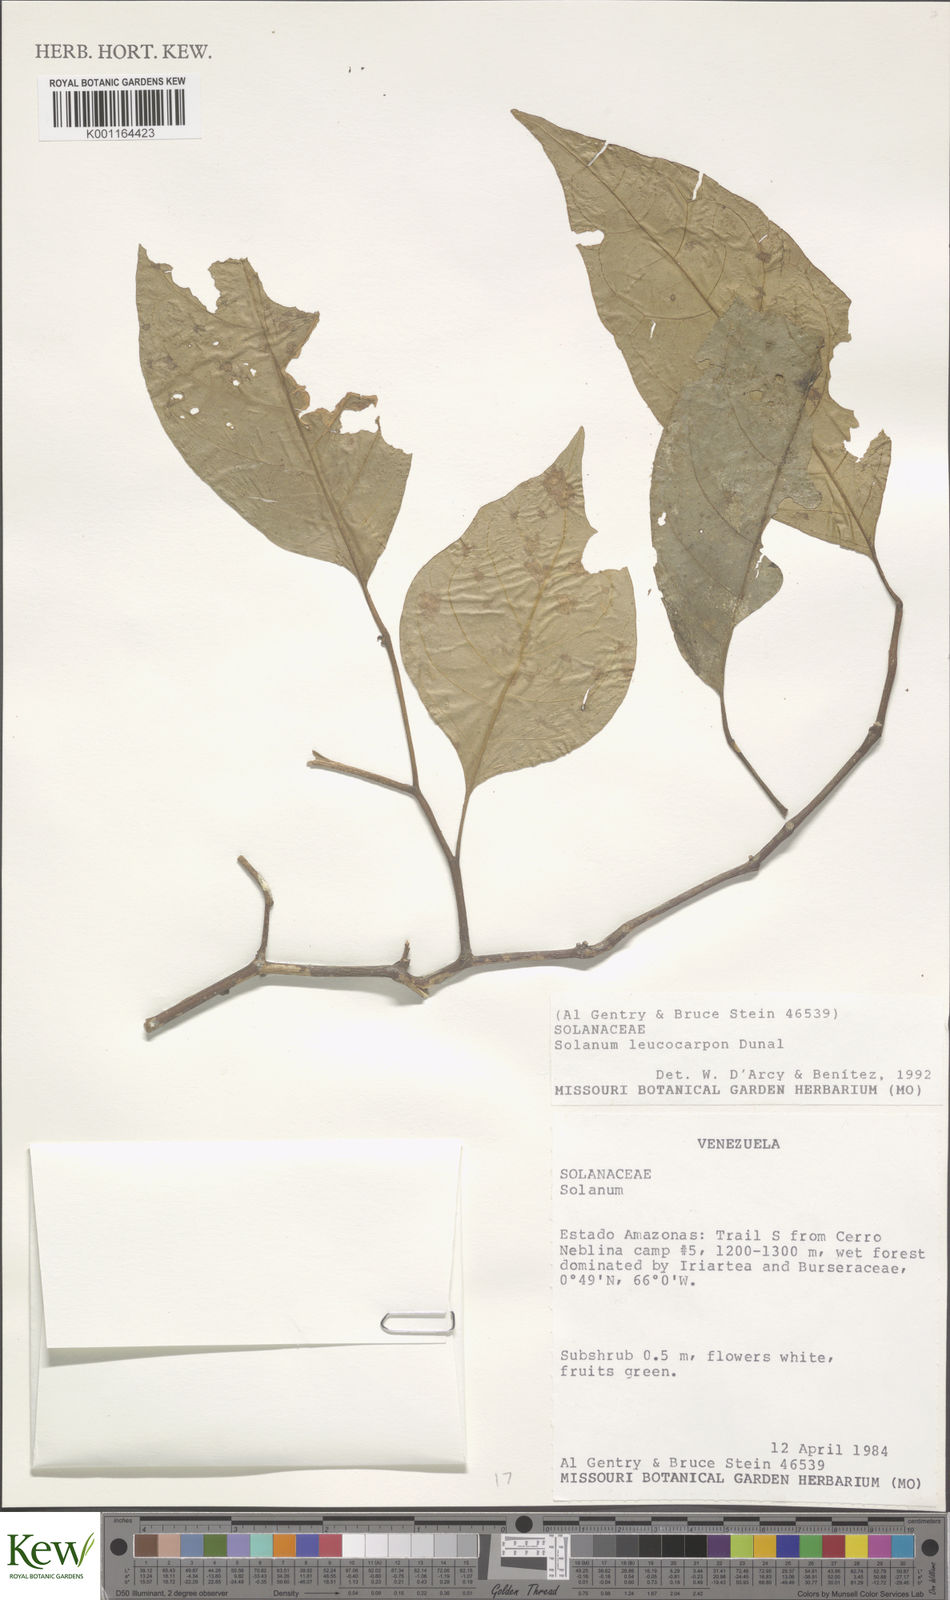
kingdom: Plantae
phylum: Tracheophyta
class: Magnoliopsida
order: Solanales
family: Solanaceae
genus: Solanum
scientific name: Solanum leucocarpon
